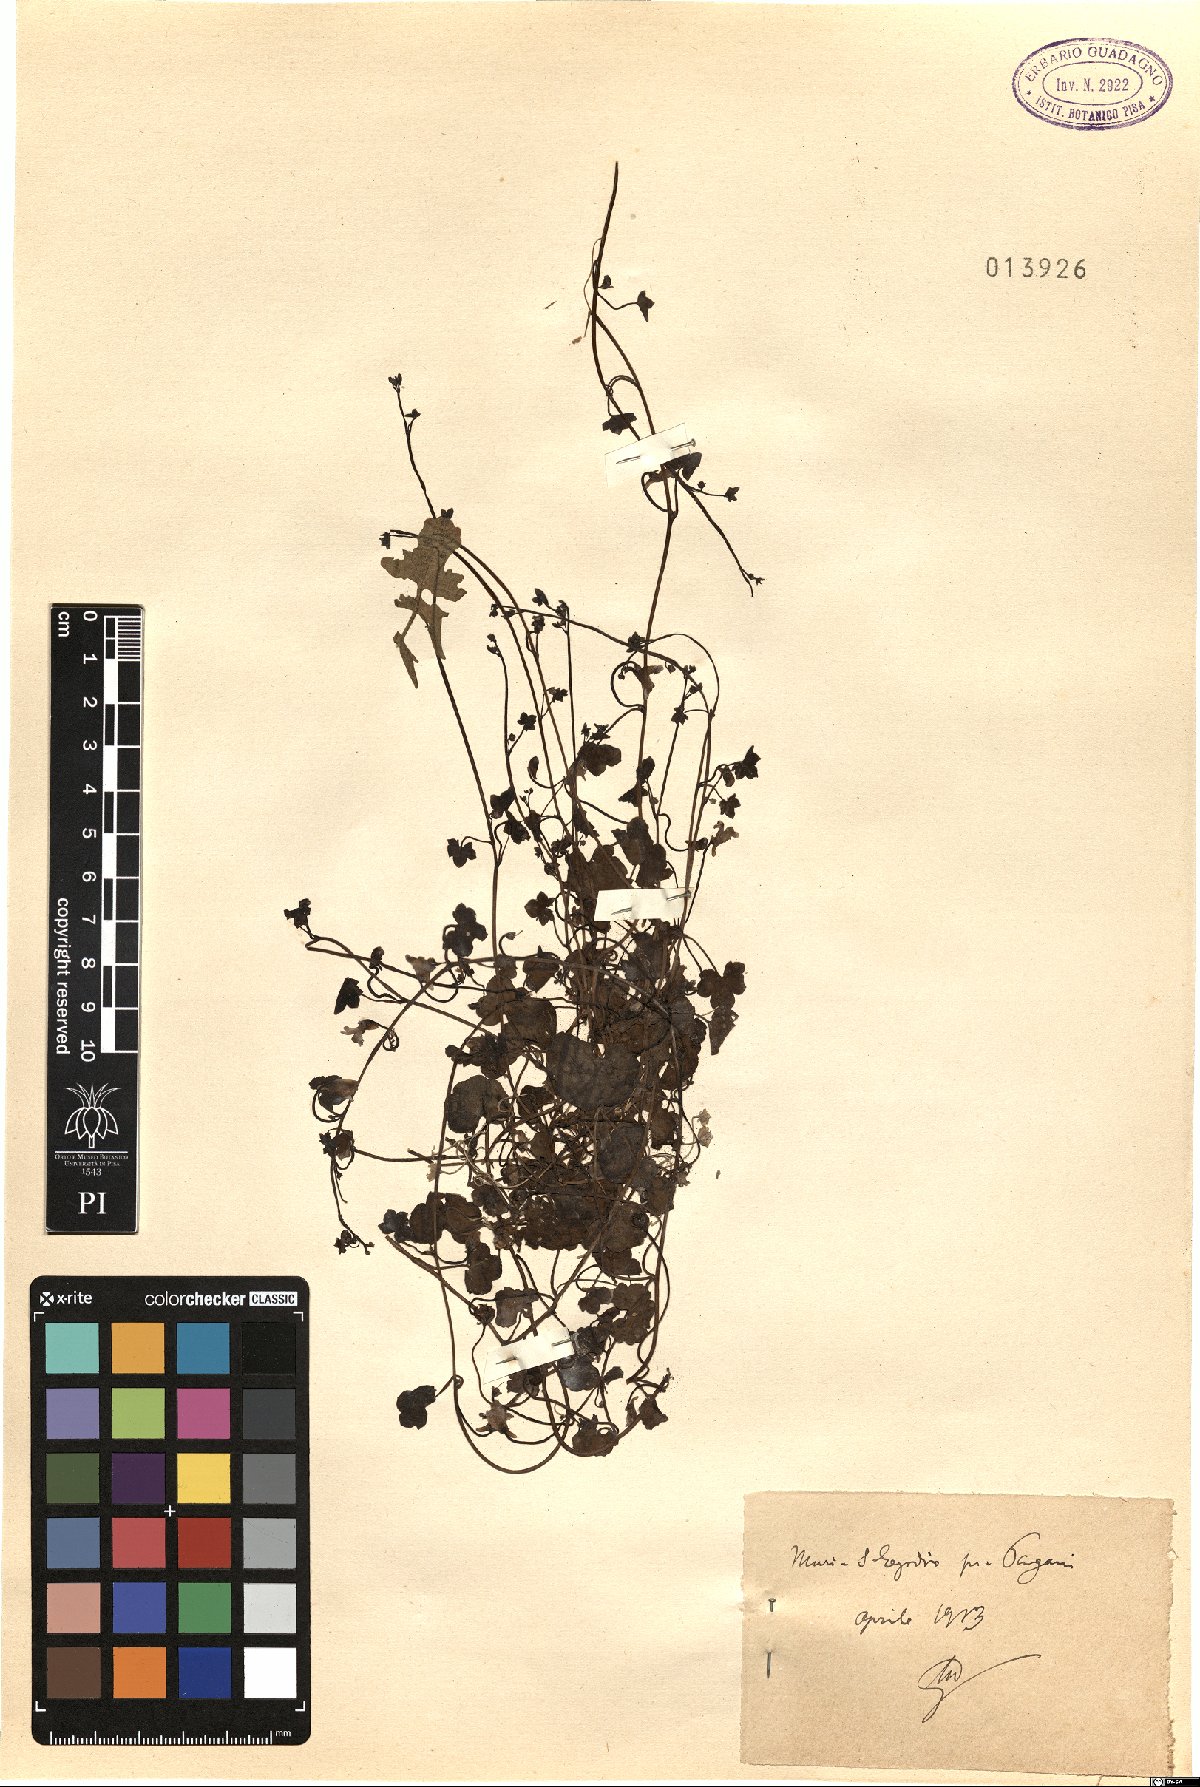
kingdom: Plantae
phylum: Tracheophyta
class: Magnoliopsida
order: Lamiales
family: Plantaginaceae
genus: Linaria
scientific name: Linaria
